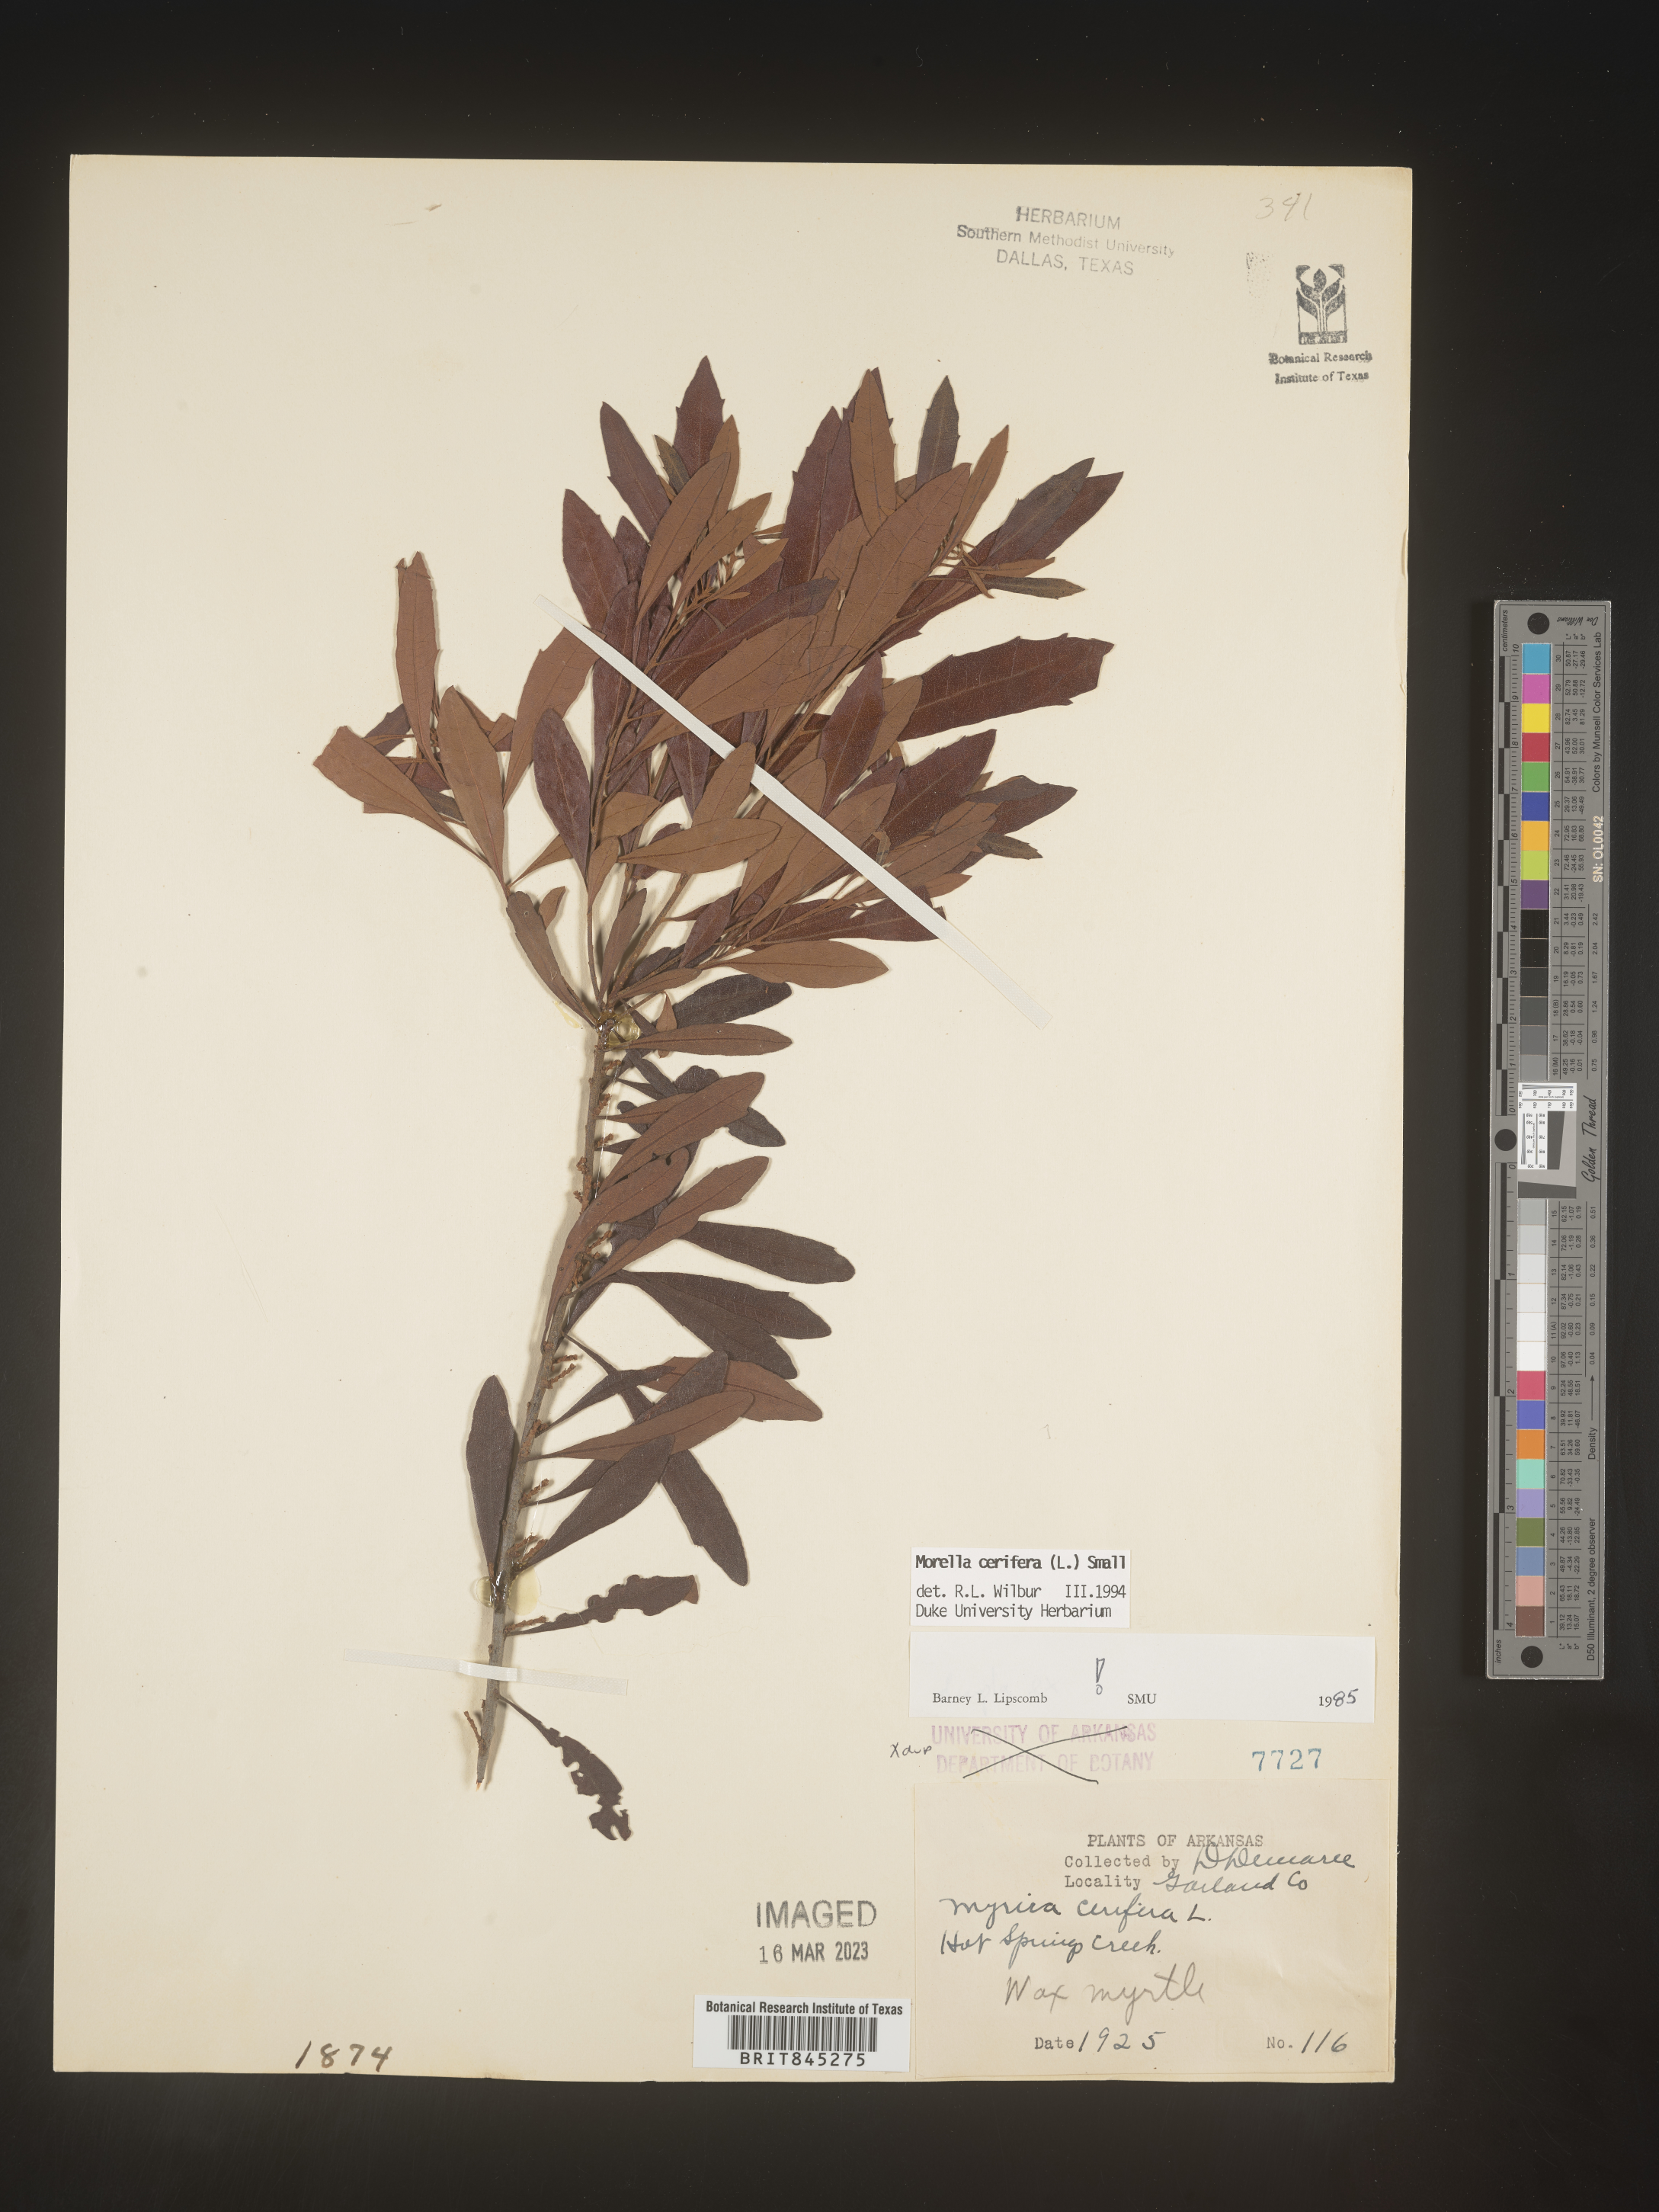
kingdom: Plantae
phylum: Tracheophyta
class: Magnoliopsida
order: Fagales
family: Myricaceae
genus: Morella
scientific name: Morella cerifera
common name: Wax myrtle
